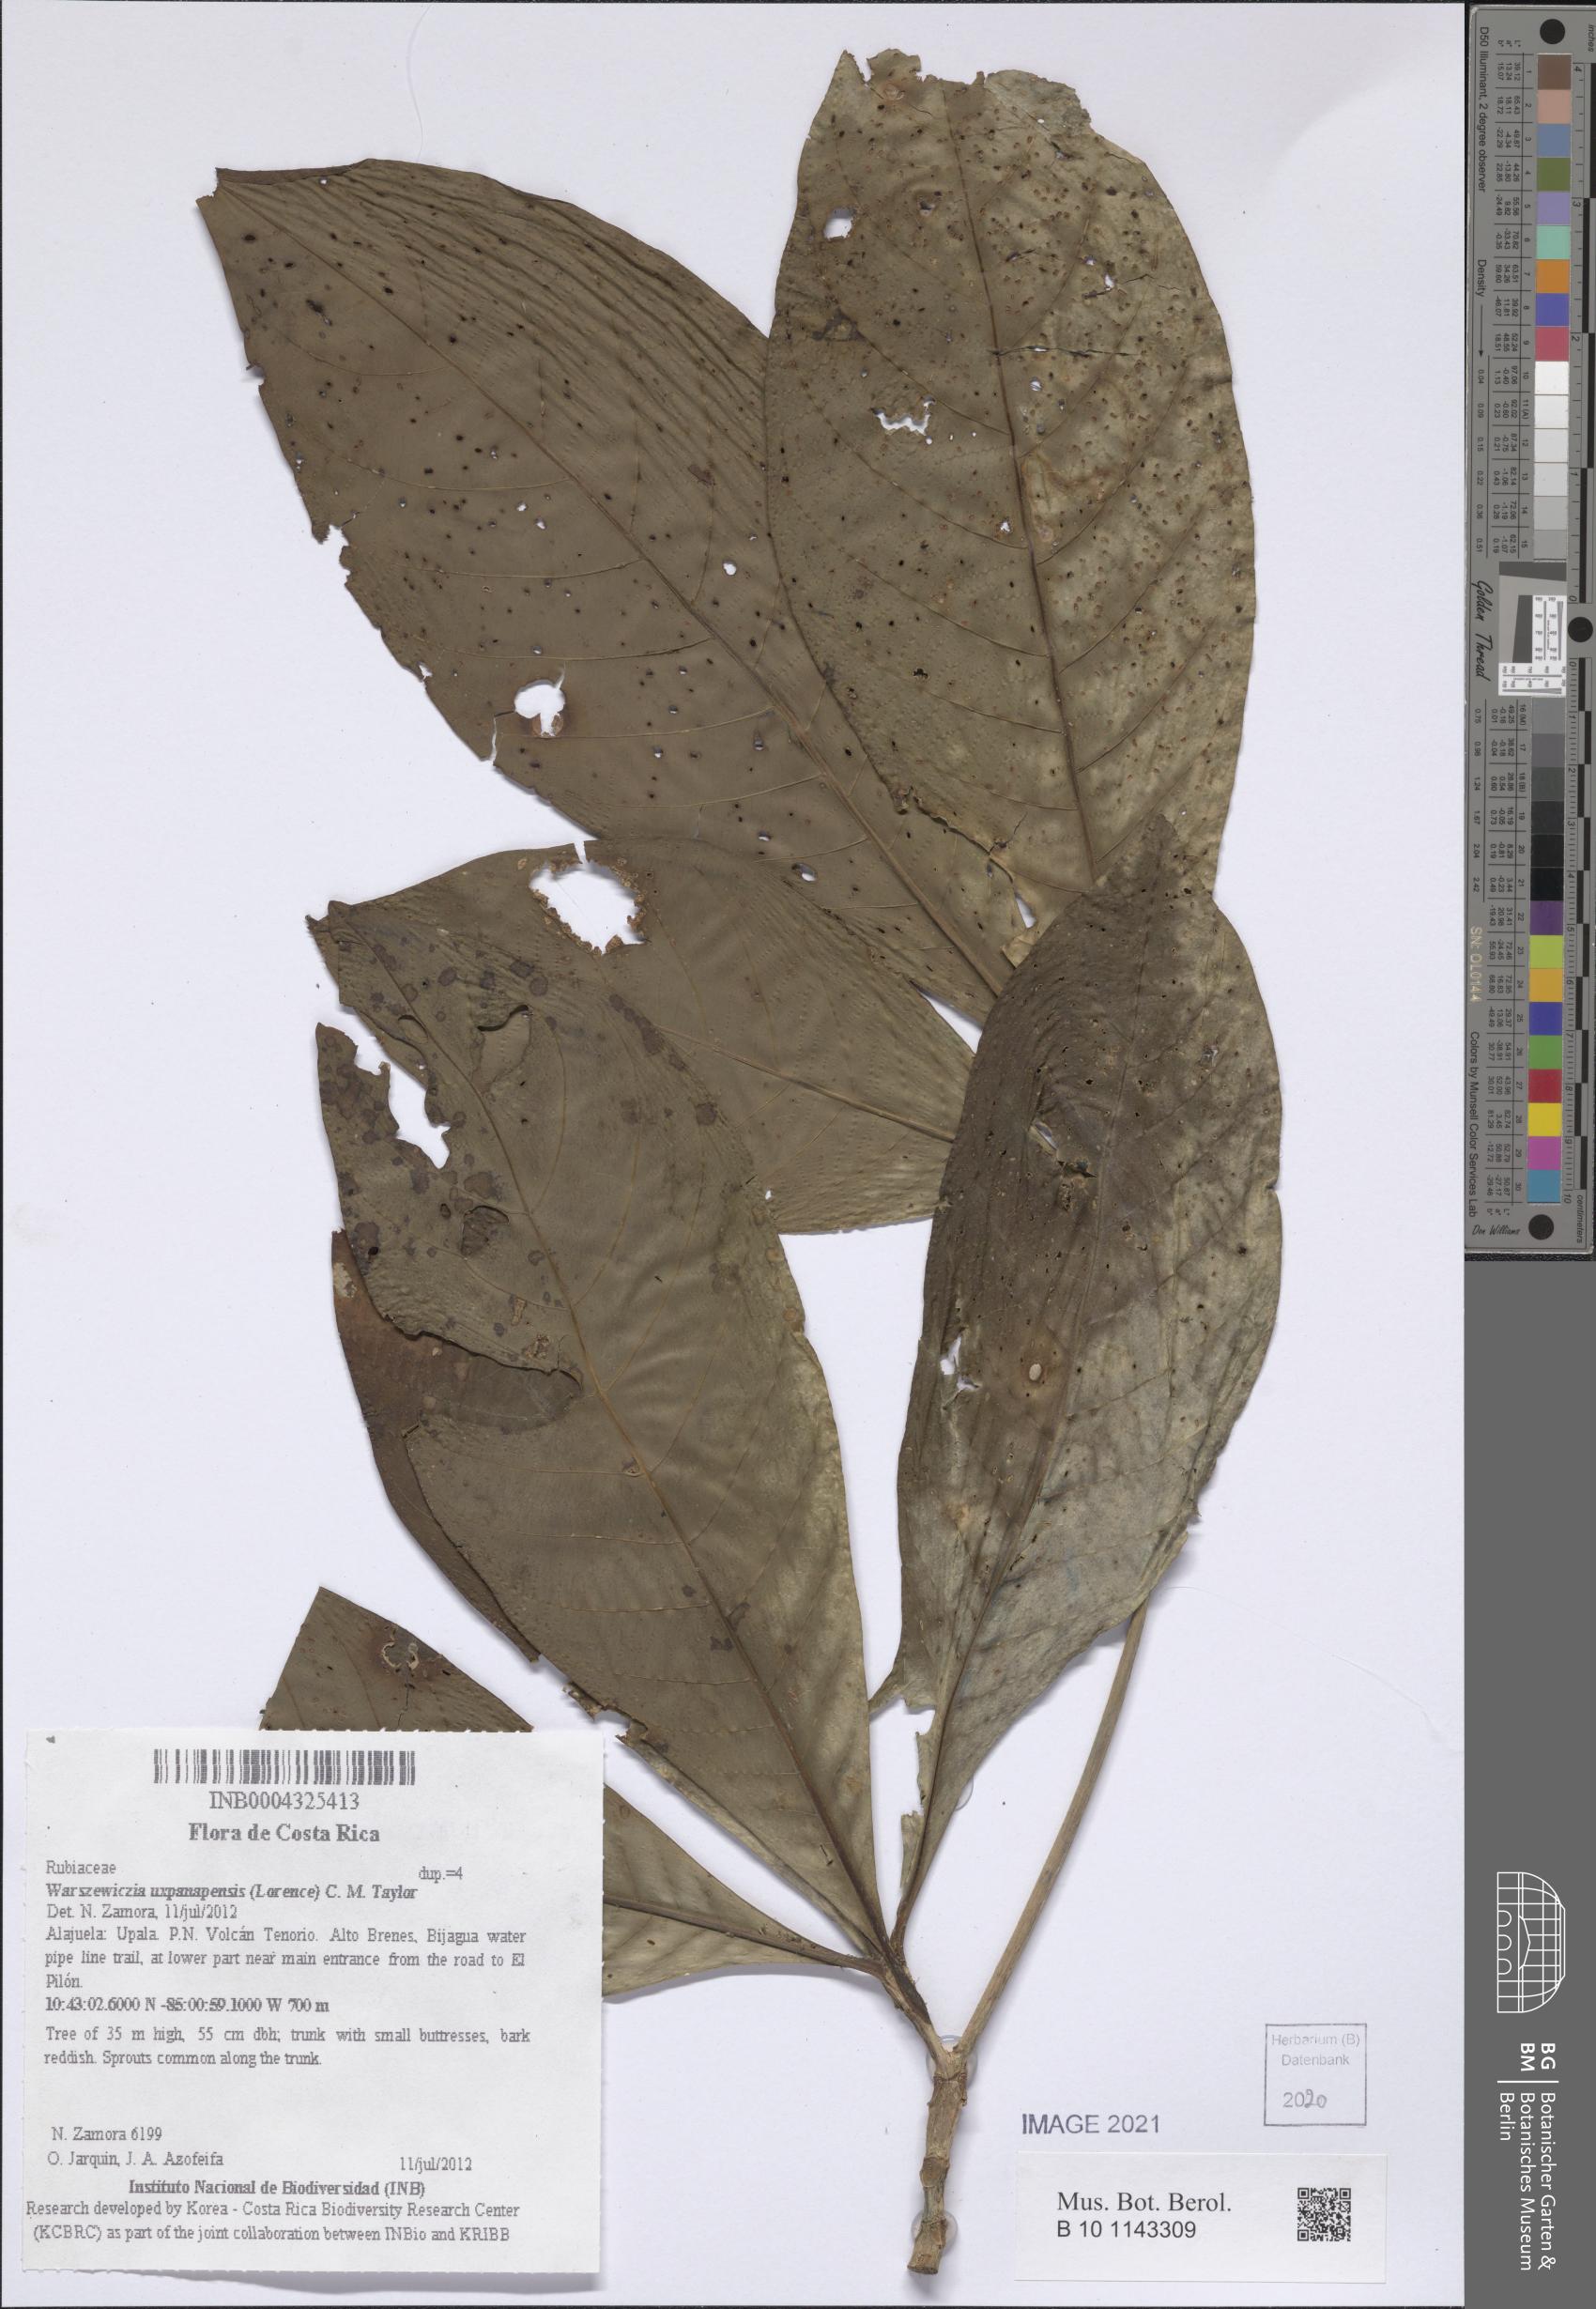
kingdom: Plantae
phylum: Tracheophyta
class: Magnoliopsida
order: Gentianales
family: Rubiaceae
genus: Warszewiczia
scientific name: Warszewiczia uxpanapensis
